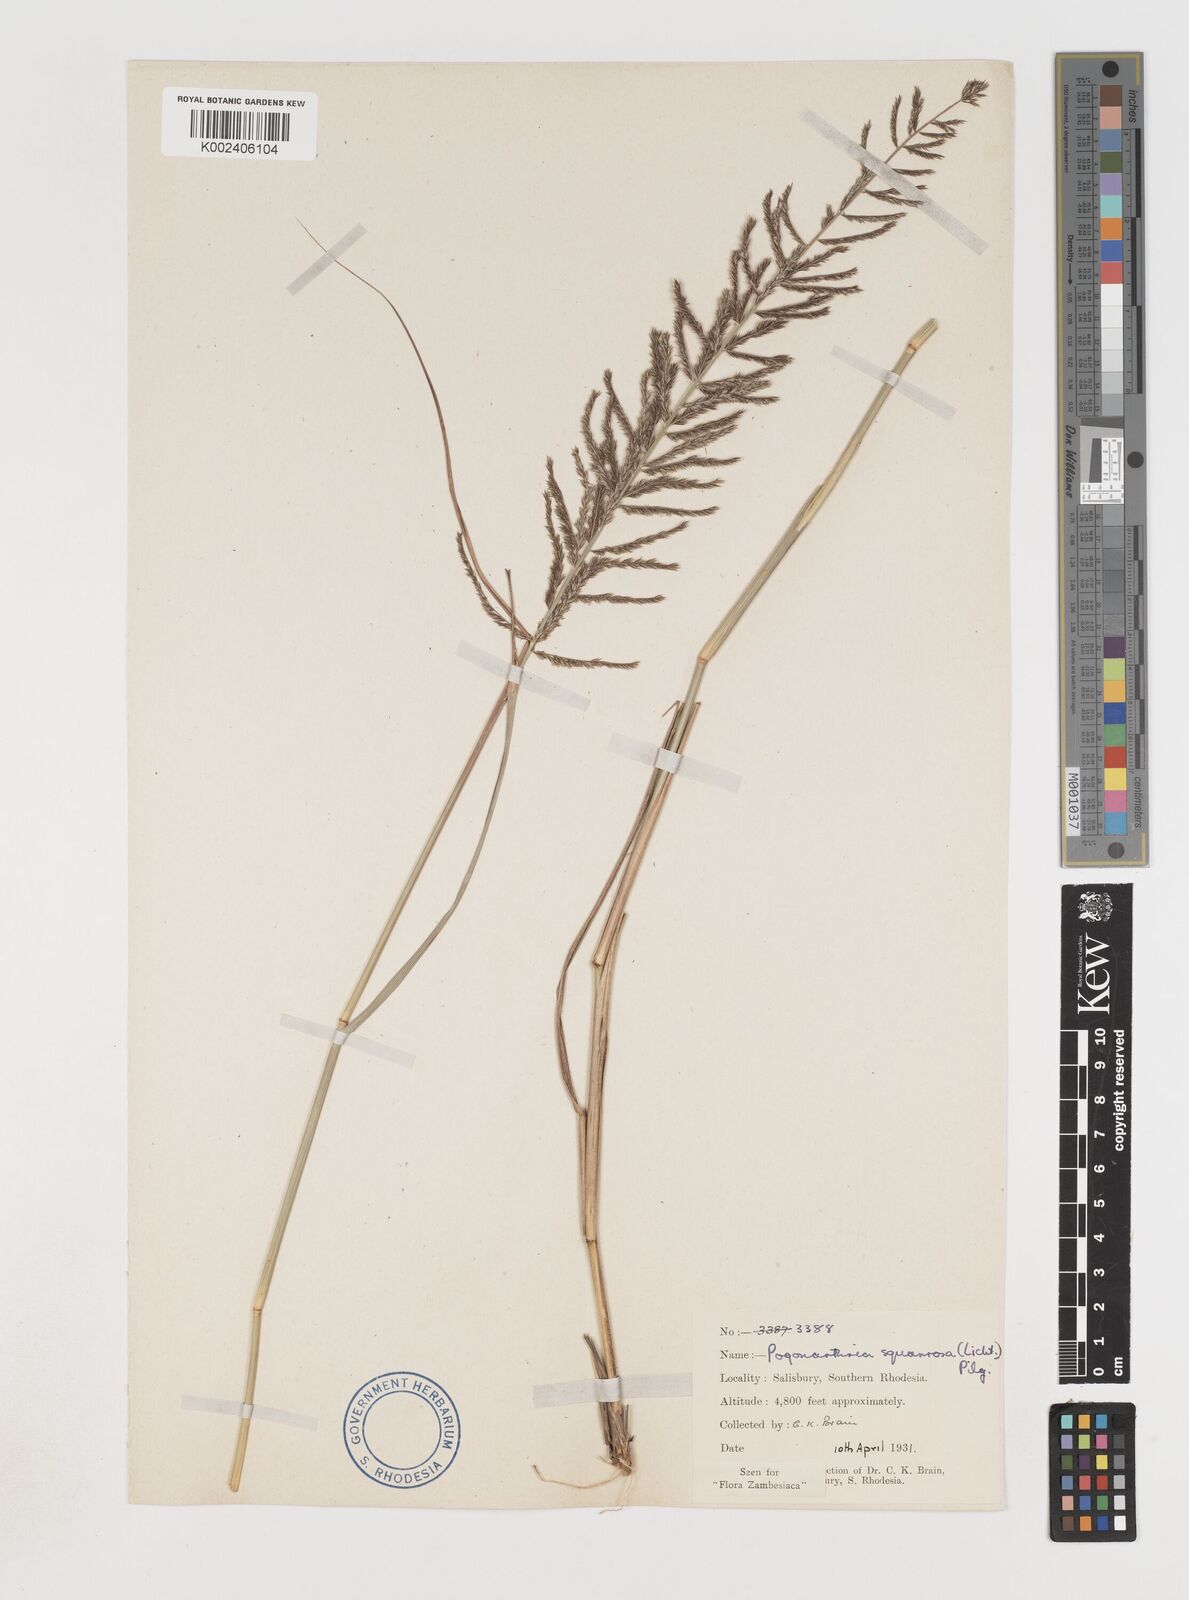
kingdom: Plantae
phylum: Tracheophyta
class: Liliopsida
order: Poales
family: Poaceae
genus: Pogonarthria
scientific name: Pogonarthria squarrosa
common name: Grass
